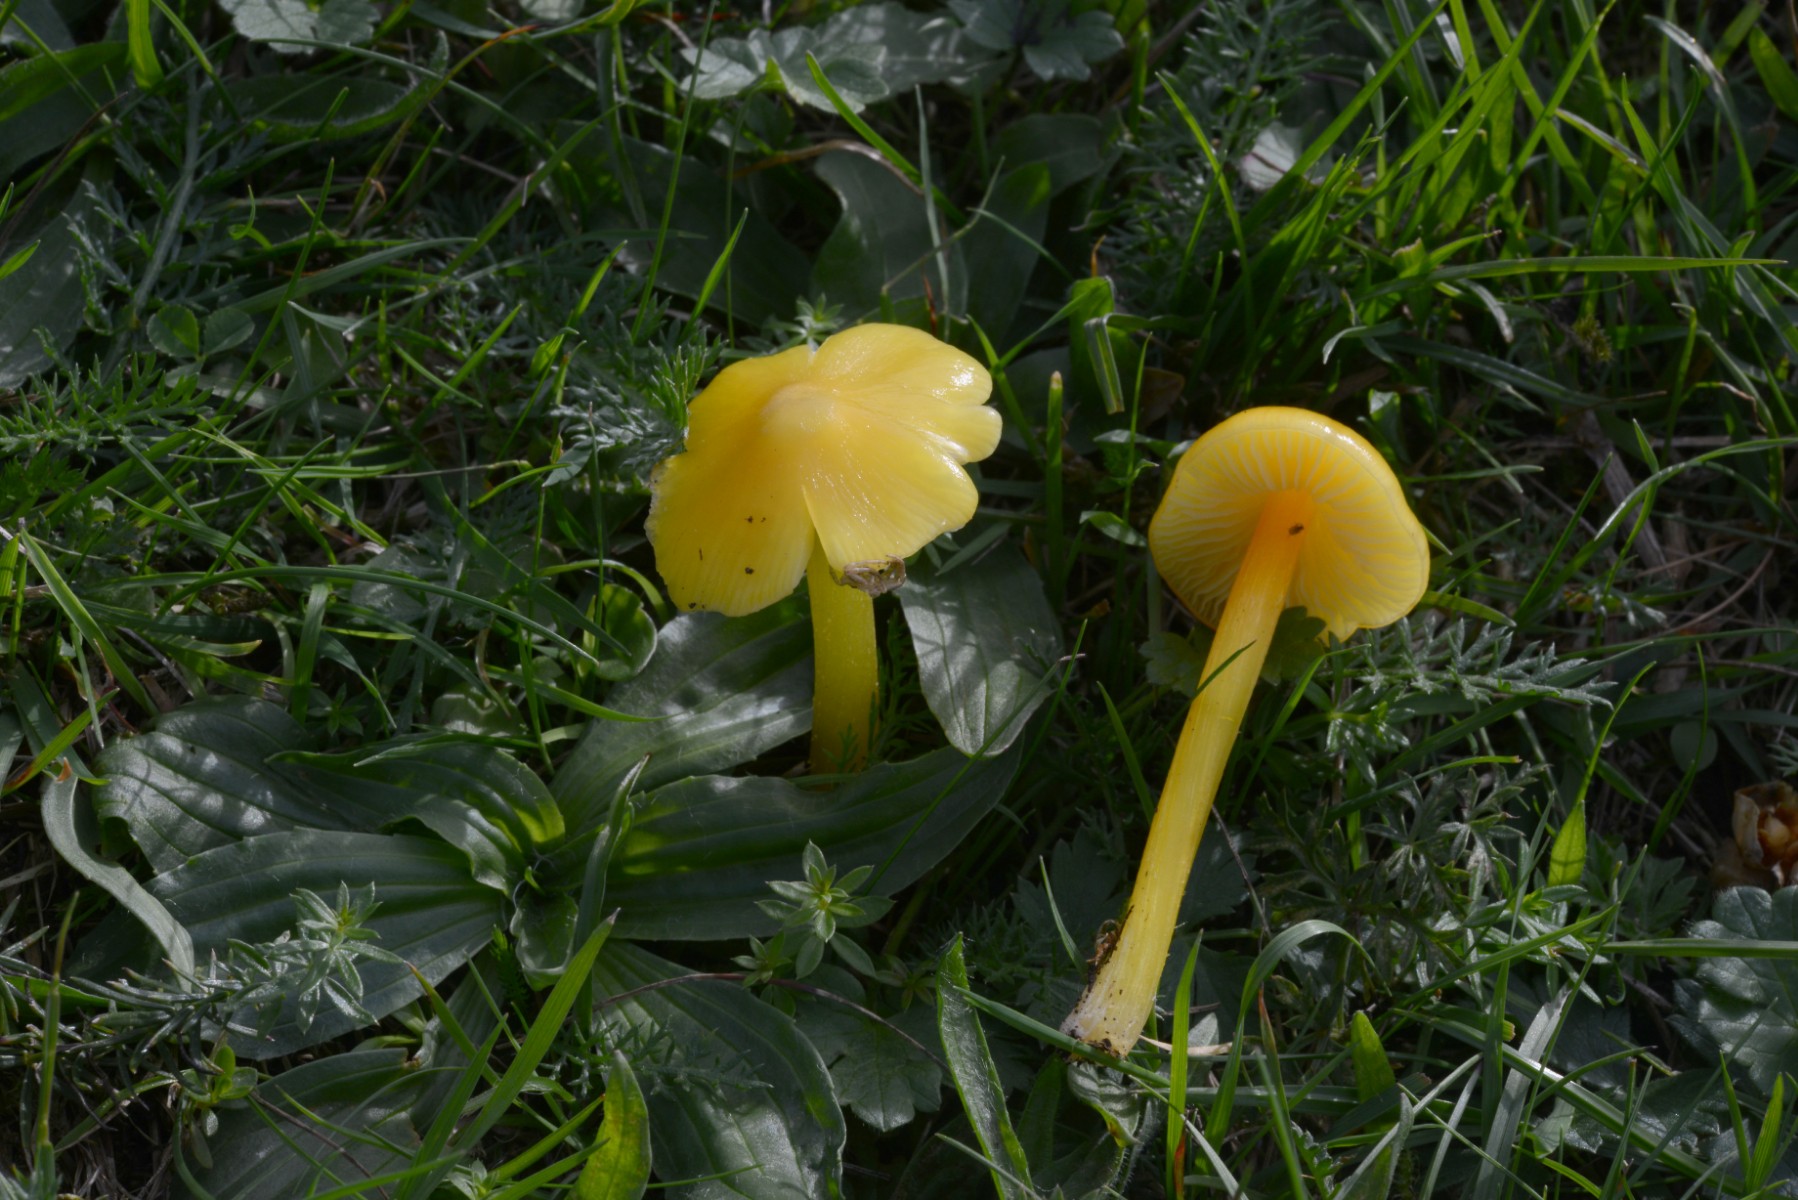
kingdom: Fungi
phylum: Basidiomycota
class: Agaricomycetes
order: Agaricales
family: Hygrophoraceae
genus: Hygrocybe
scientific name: Hygrocybe acutoconica
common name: spidspuklet vokshat
